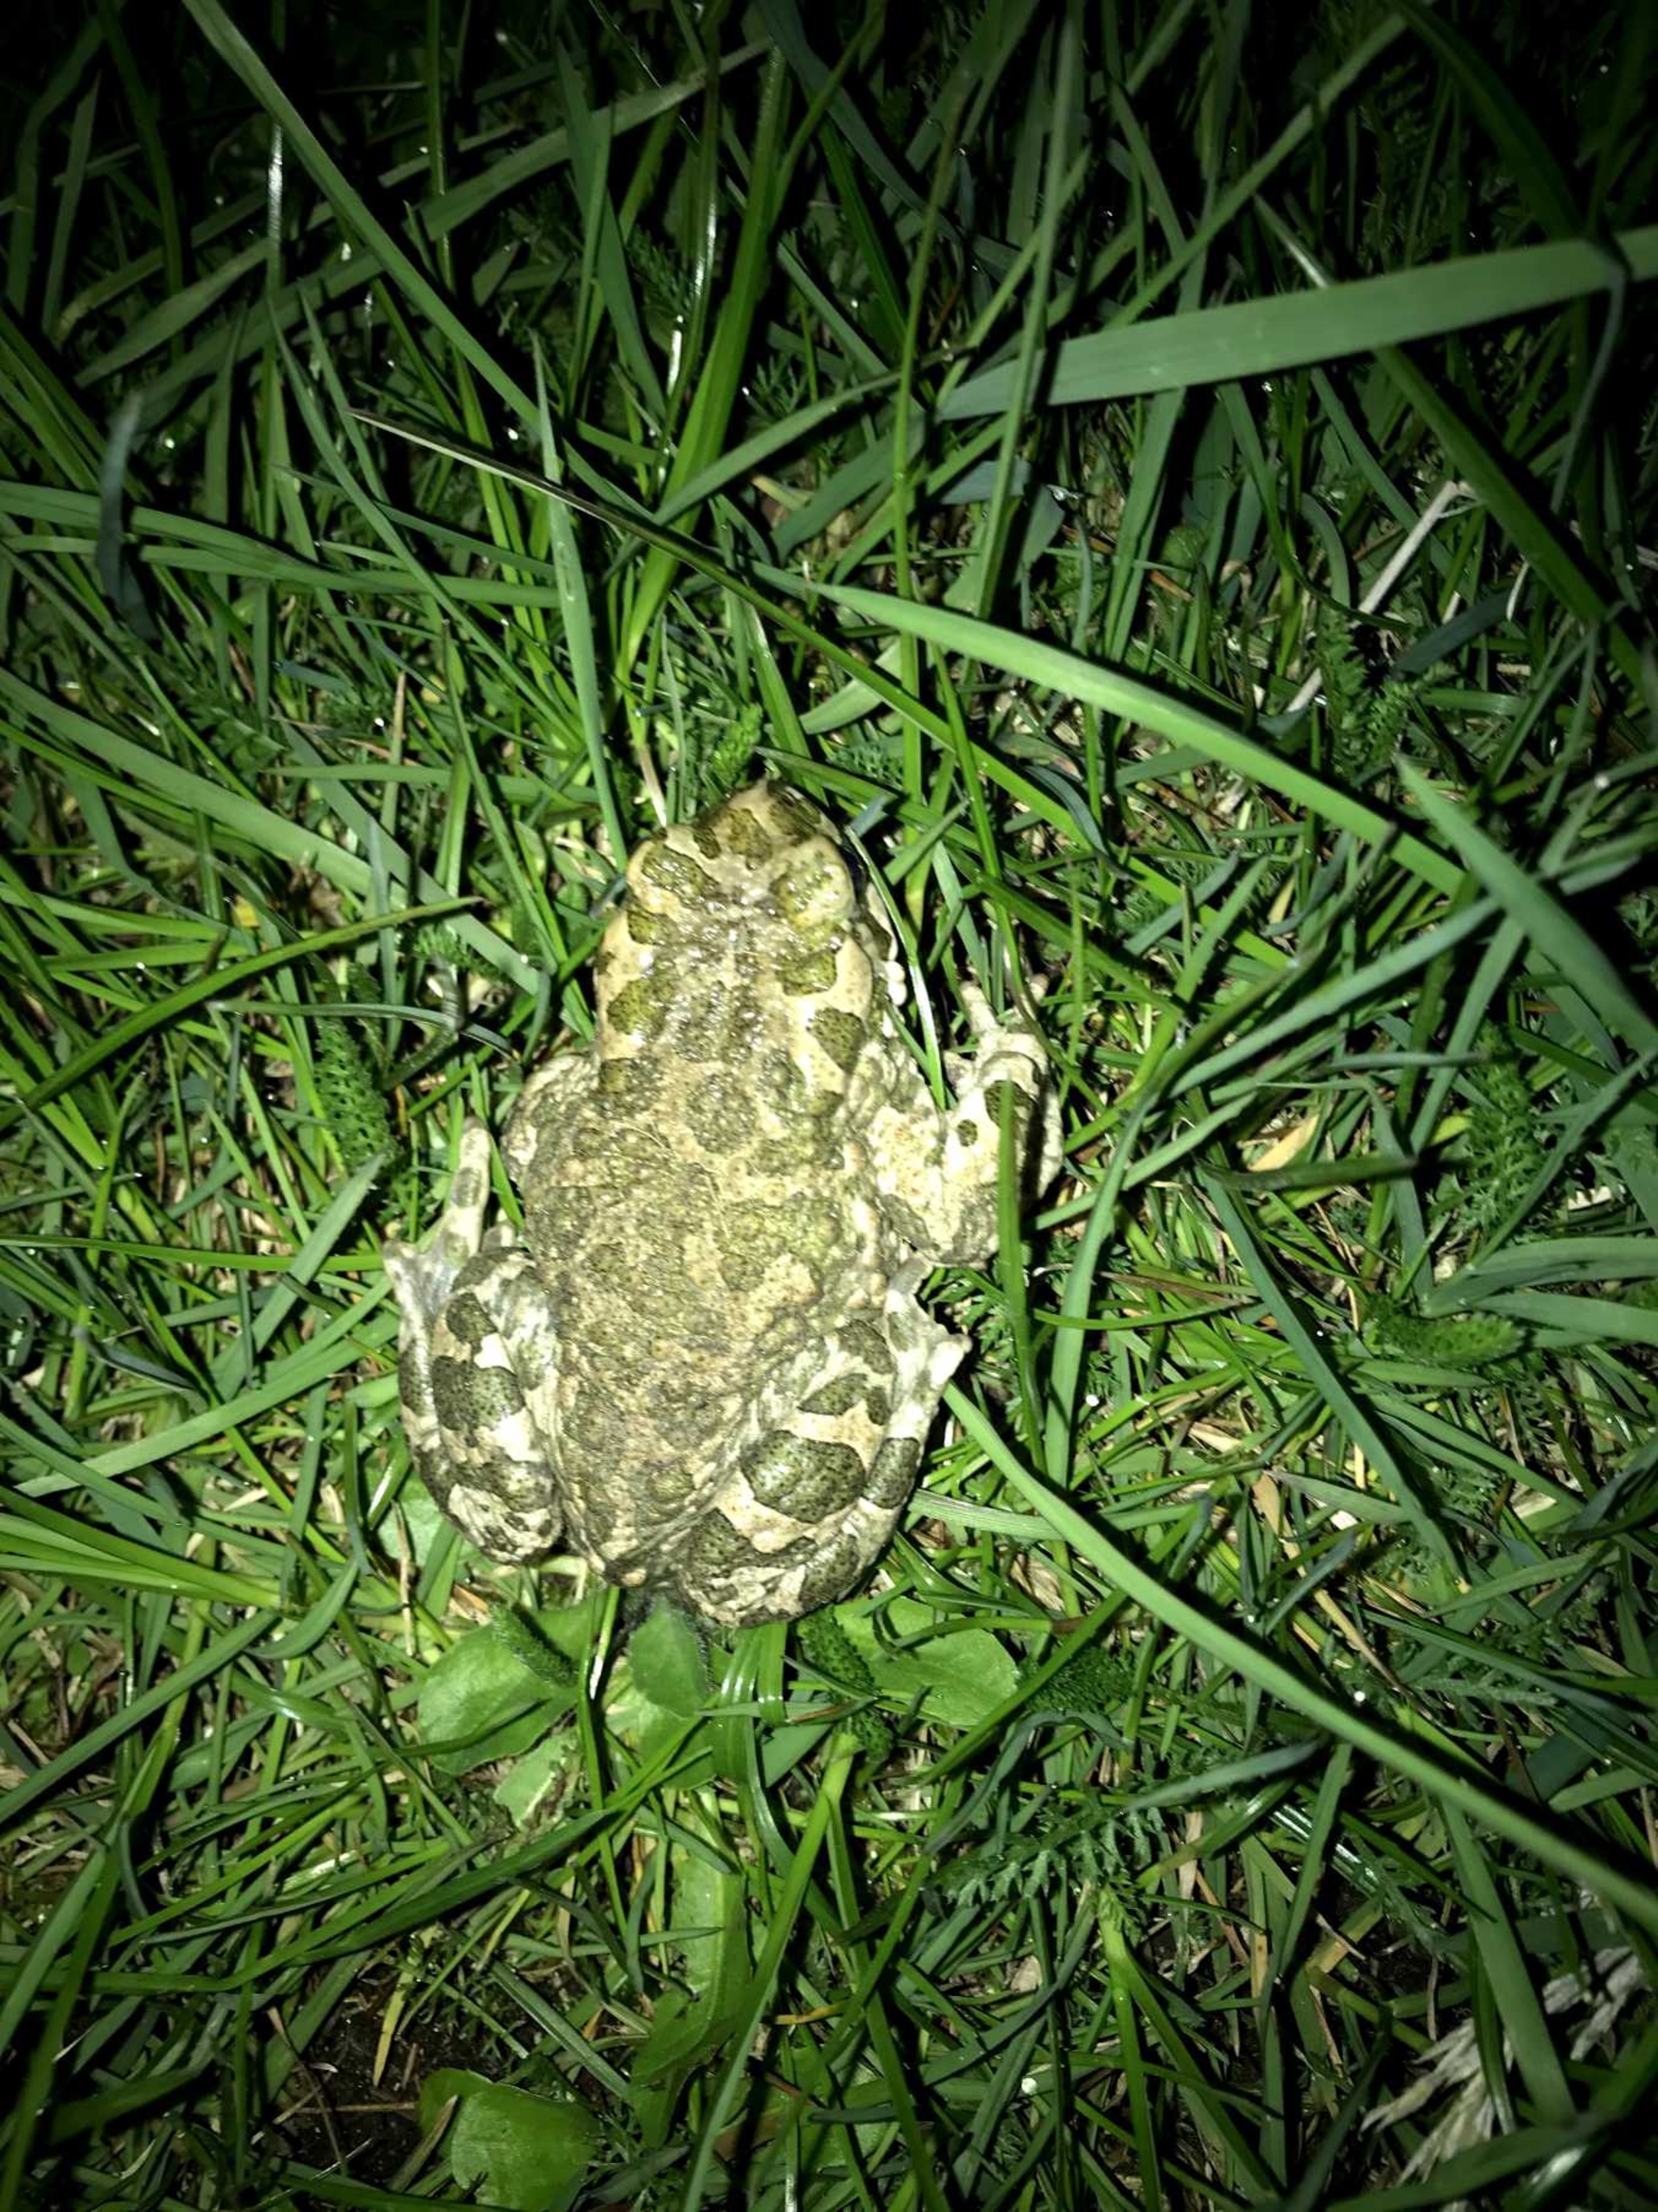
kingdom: Animalia
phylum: Chordata
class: Amphibia
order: Anura
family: Bufonidae
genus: Bufotes
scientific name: Bufotes viridis
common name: Grønbroget tudse
